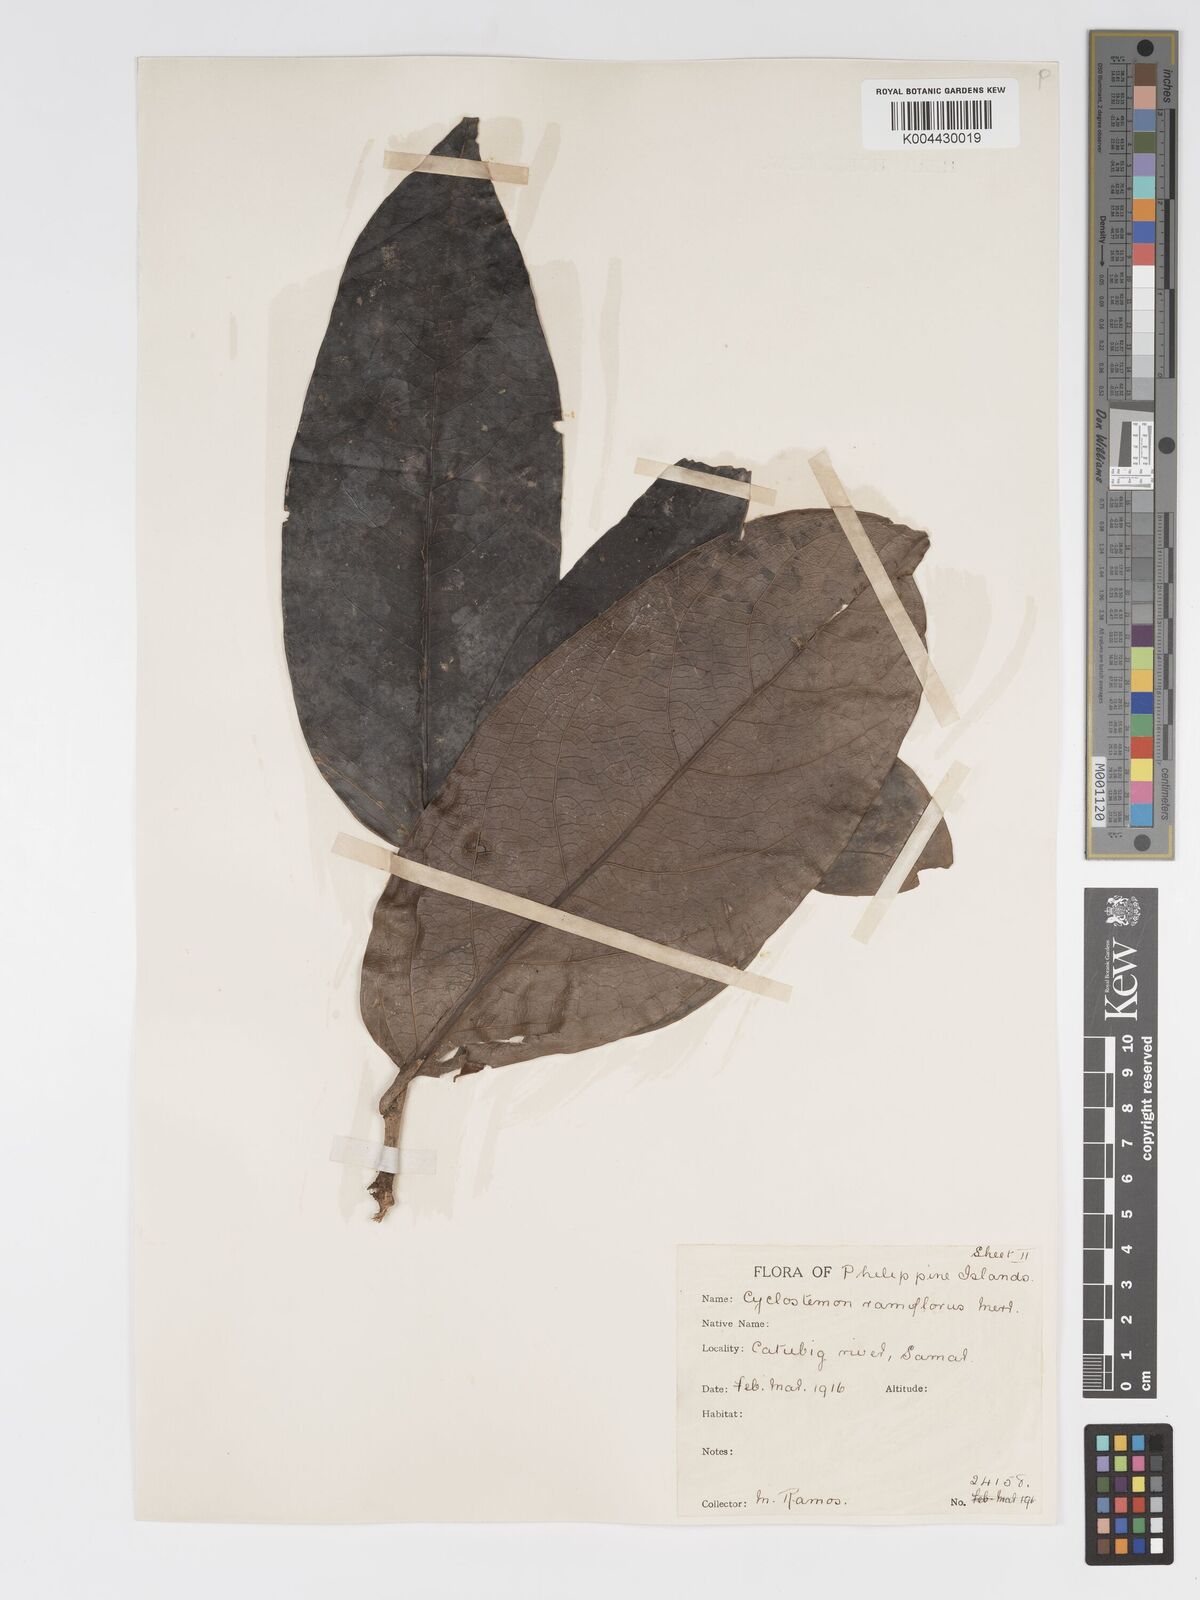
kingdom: Plantae
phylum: Tracheophyta
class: Magnoliopsida
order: Malpighiales
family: Putranjivaceae
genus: Drypetes
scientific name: Drypetes grandifolia
